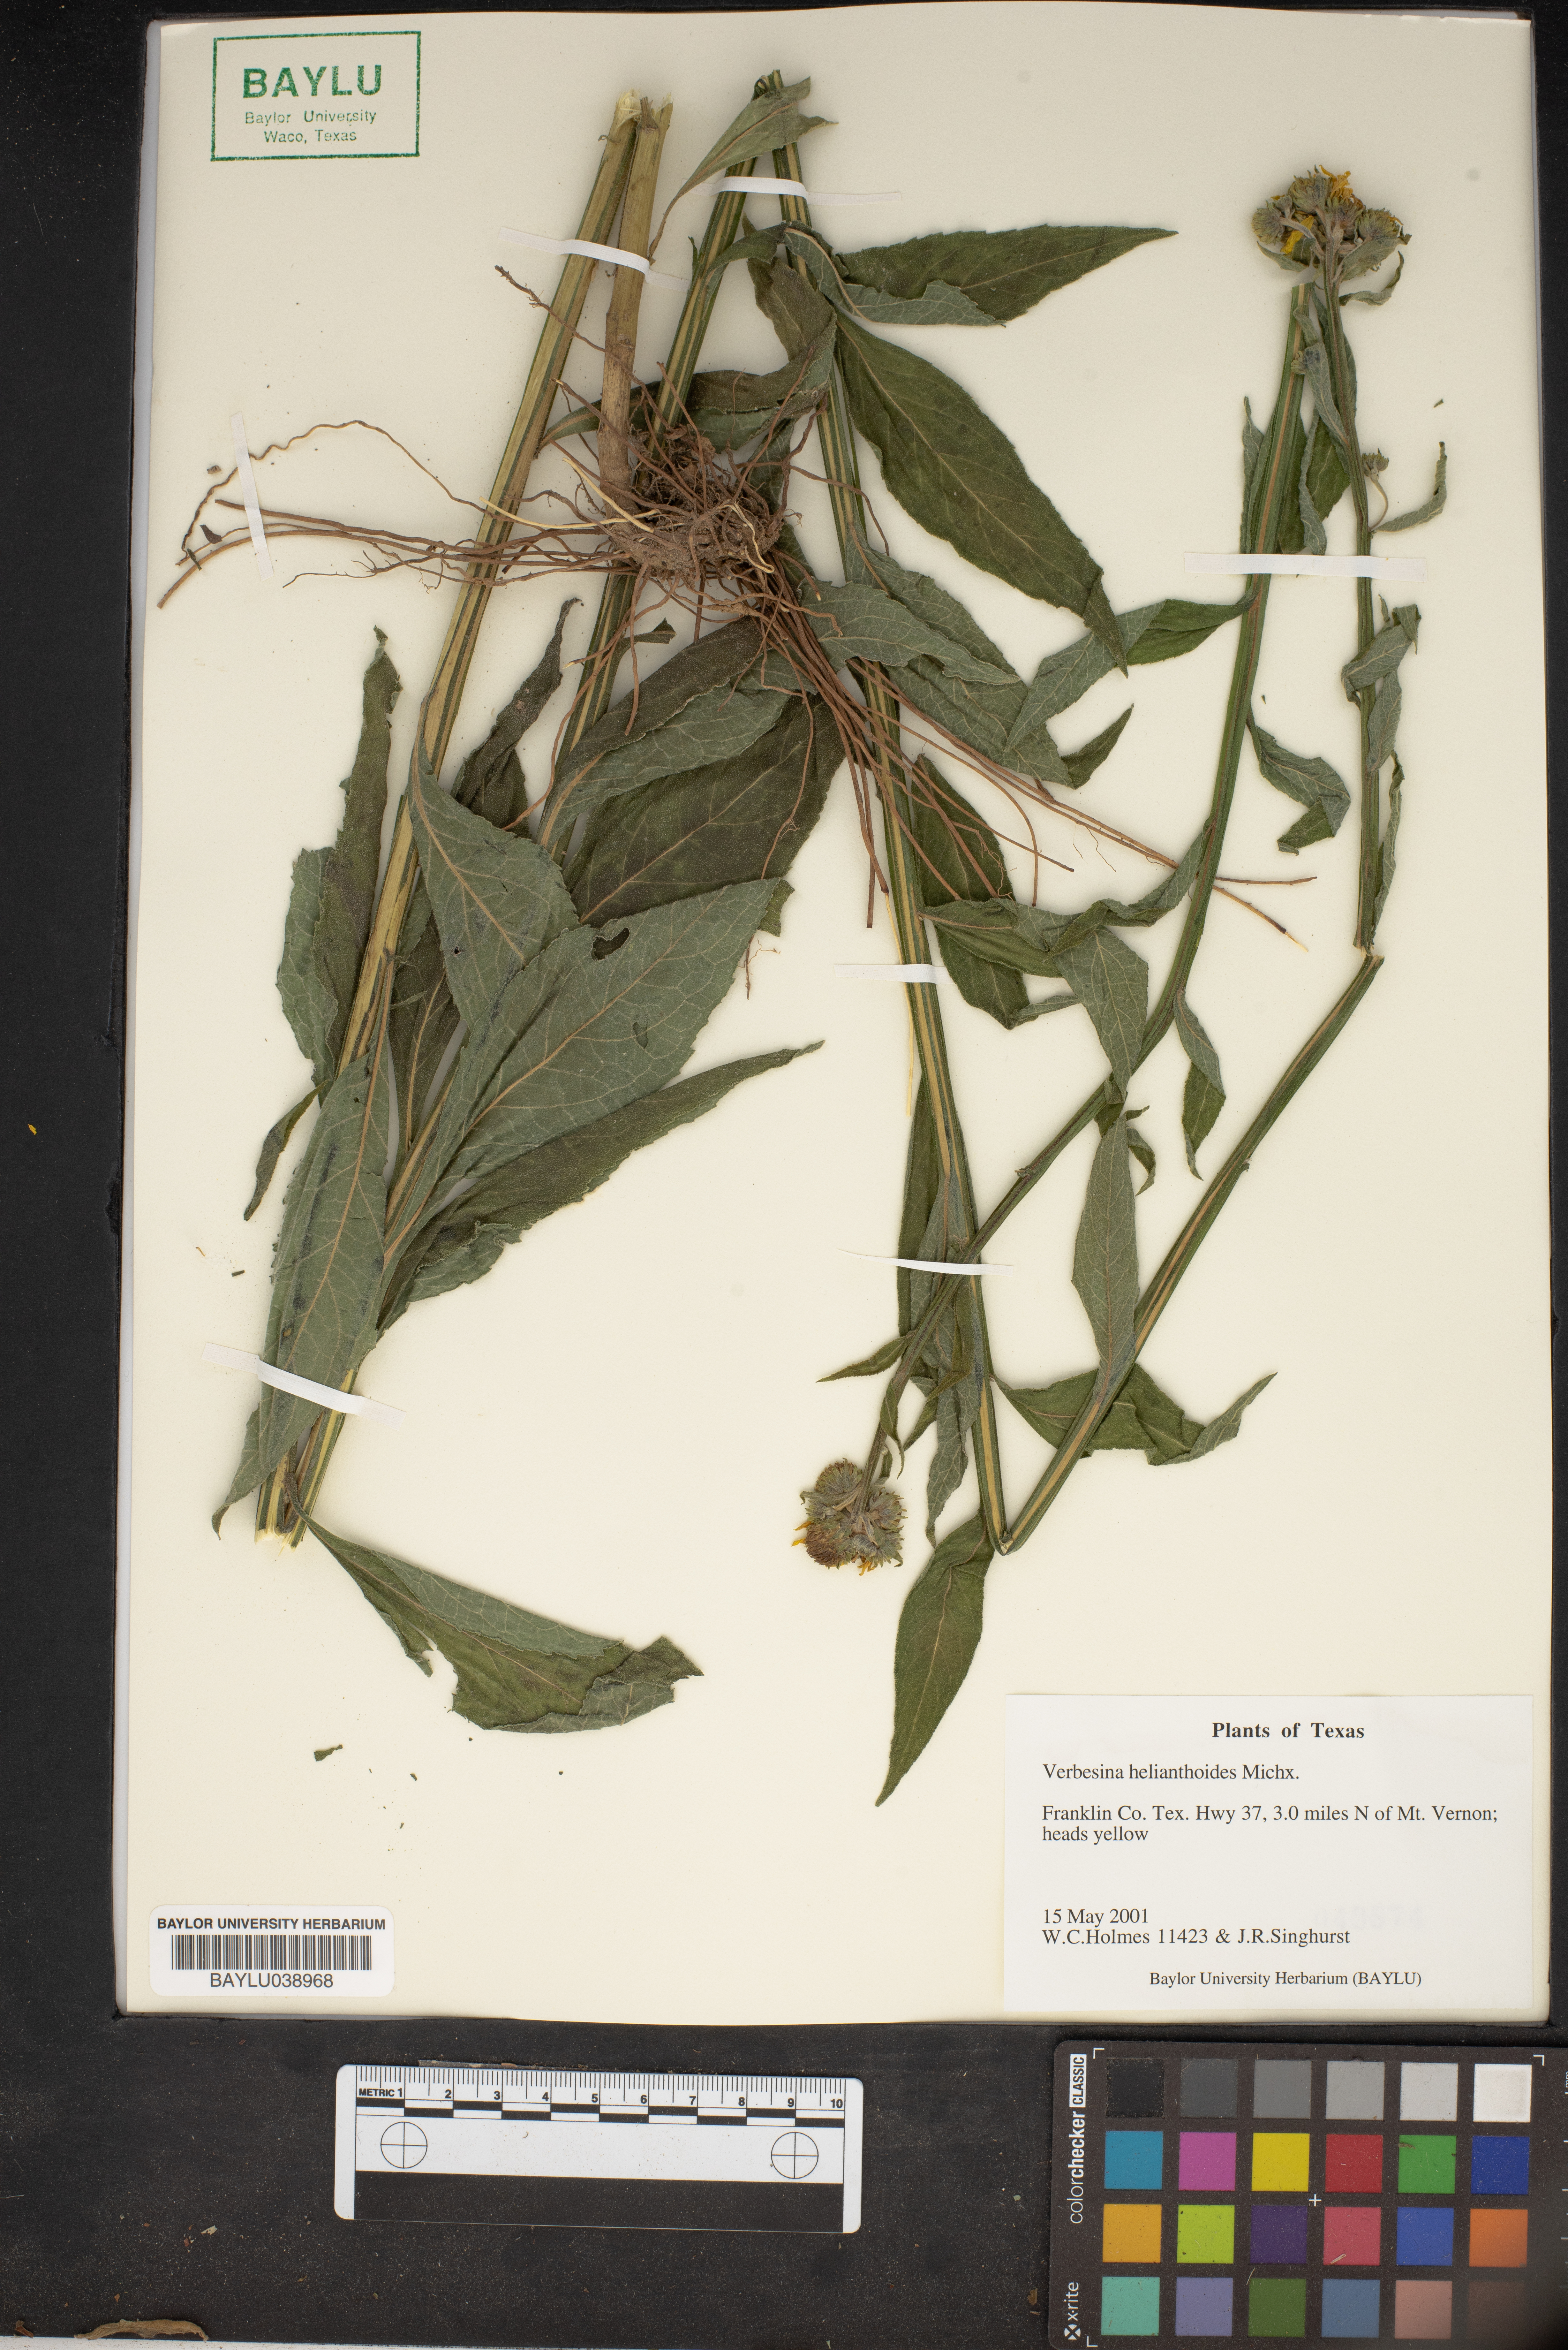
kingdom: Plantae
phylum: Tracheophyta
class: Magnoliopsida
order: Asterales
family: Asteraceae
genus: Verbesina
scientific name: Verbesina helianthoides
